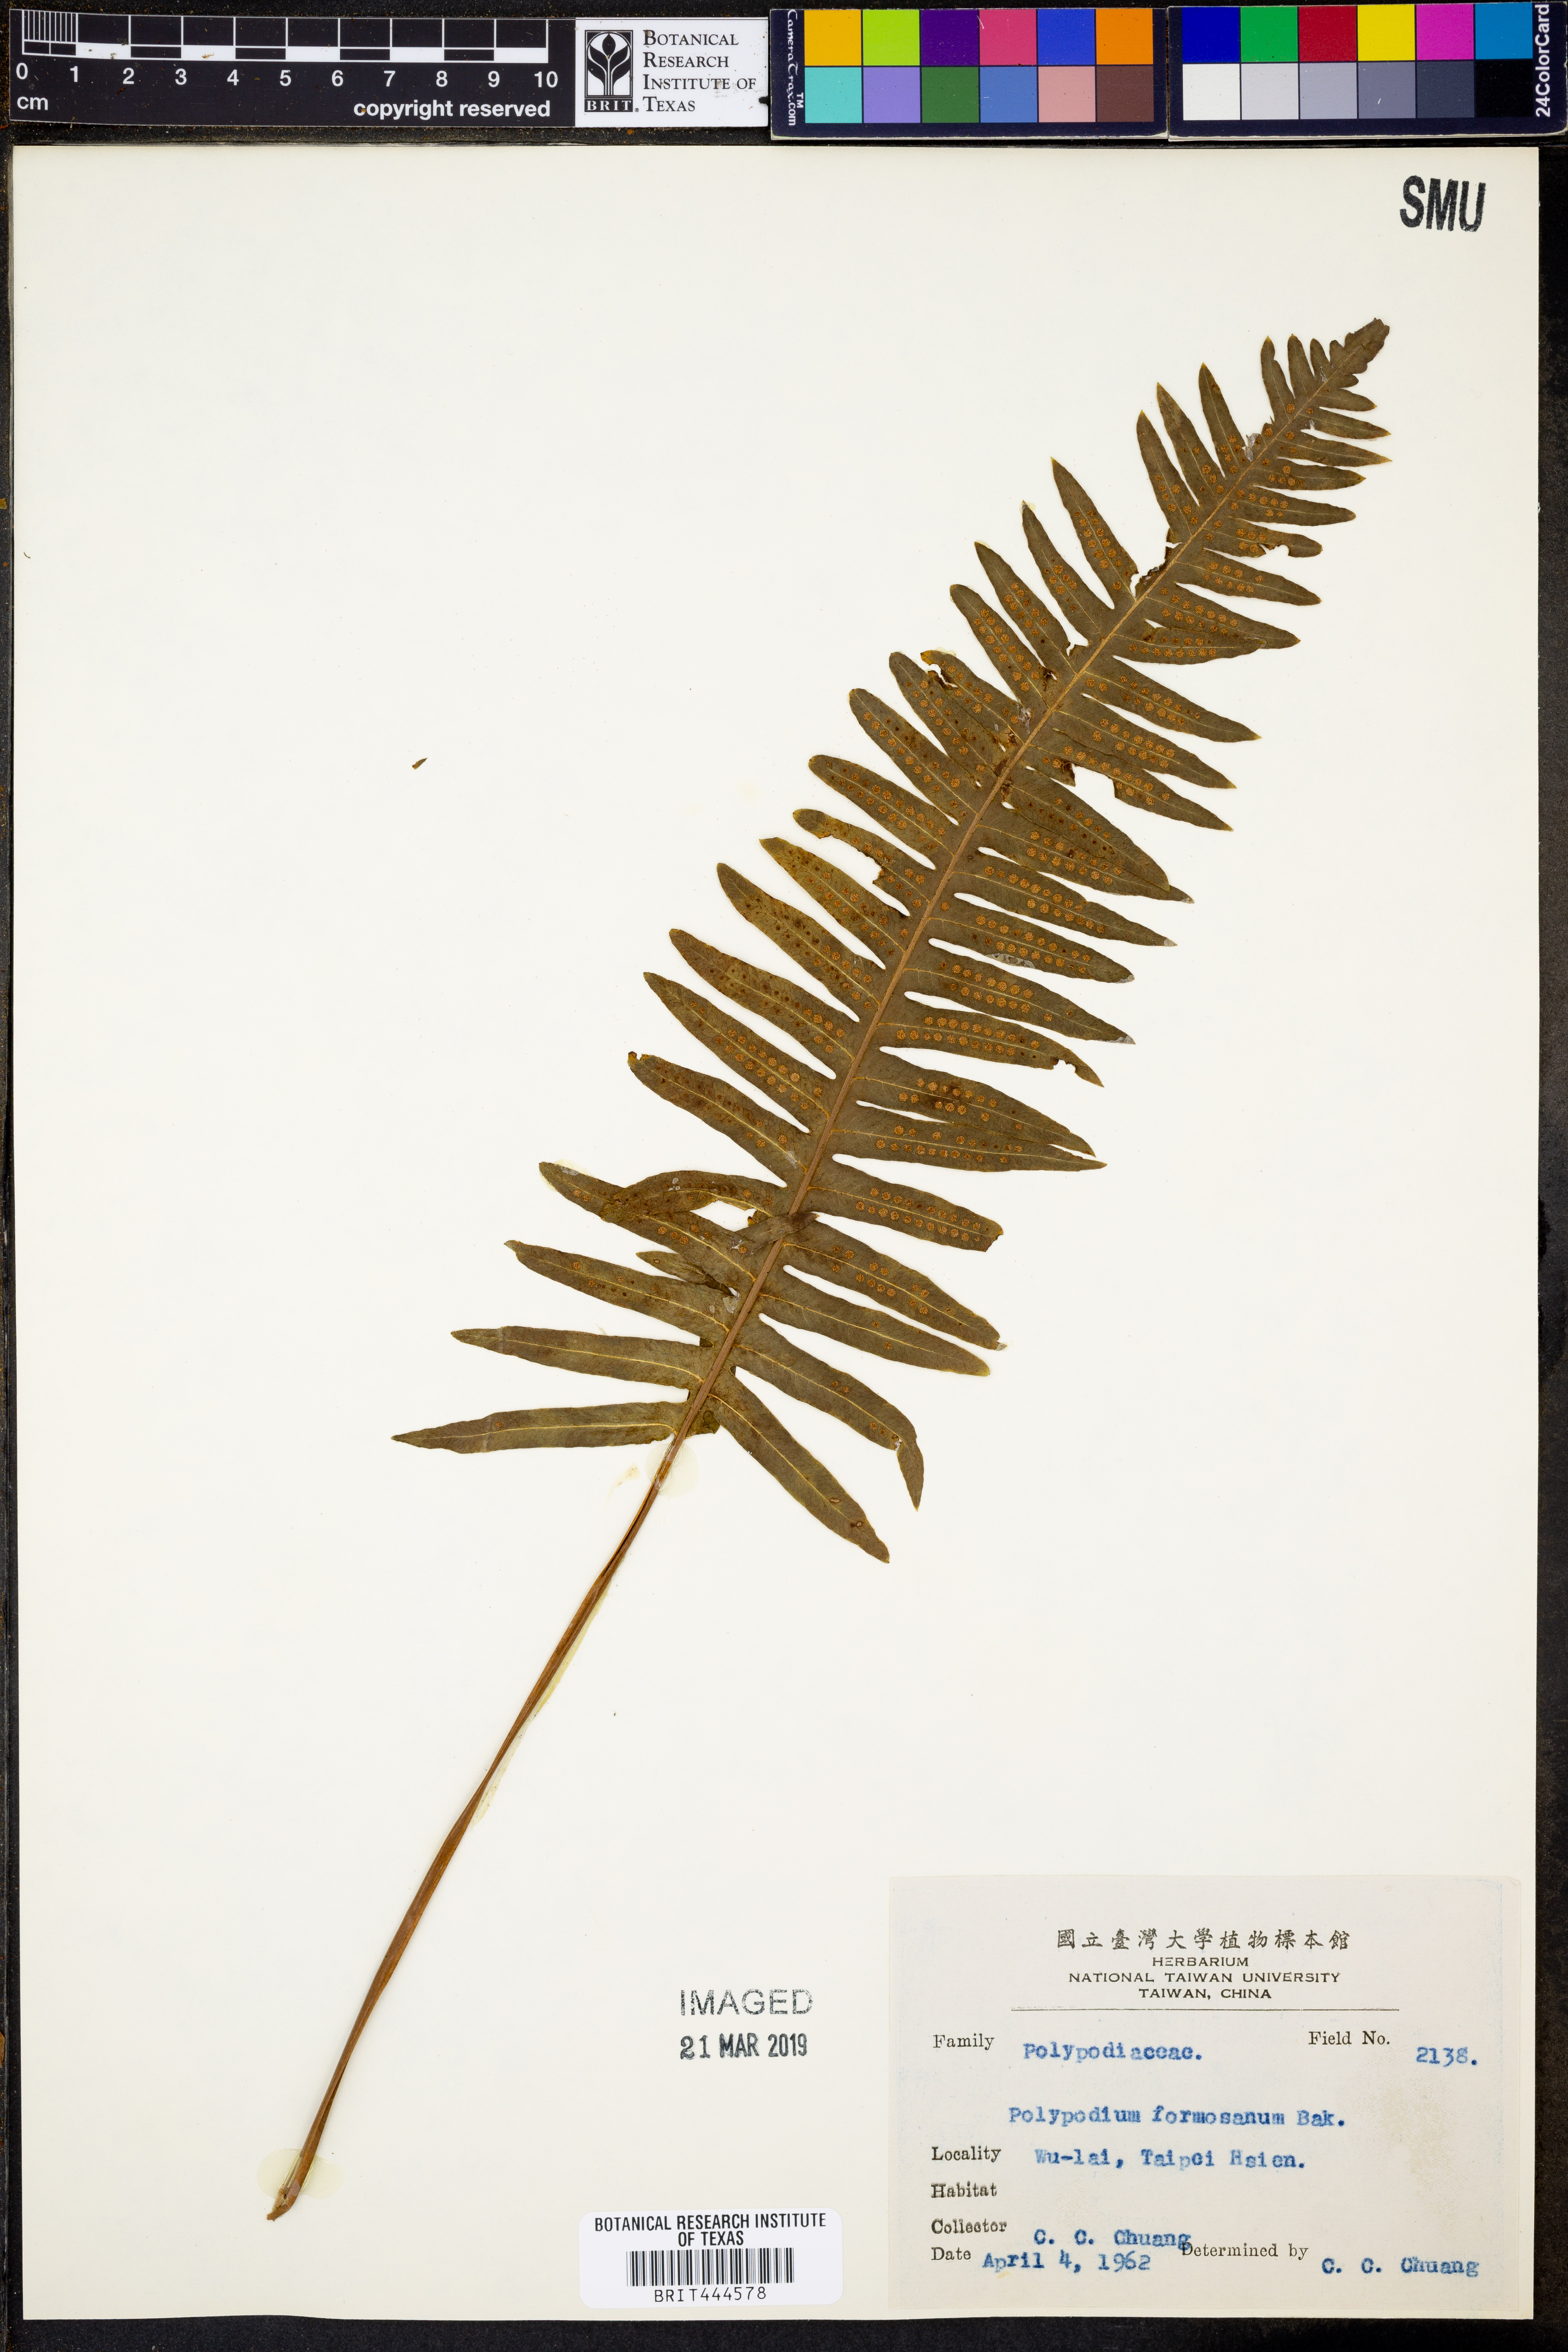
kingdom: Plantae
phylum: Tracheophyta
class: Polypodiopsida
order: Polypodiales
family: Polypodiaceae
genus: Goniophlebium
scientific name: Goniophlebium formosanum
